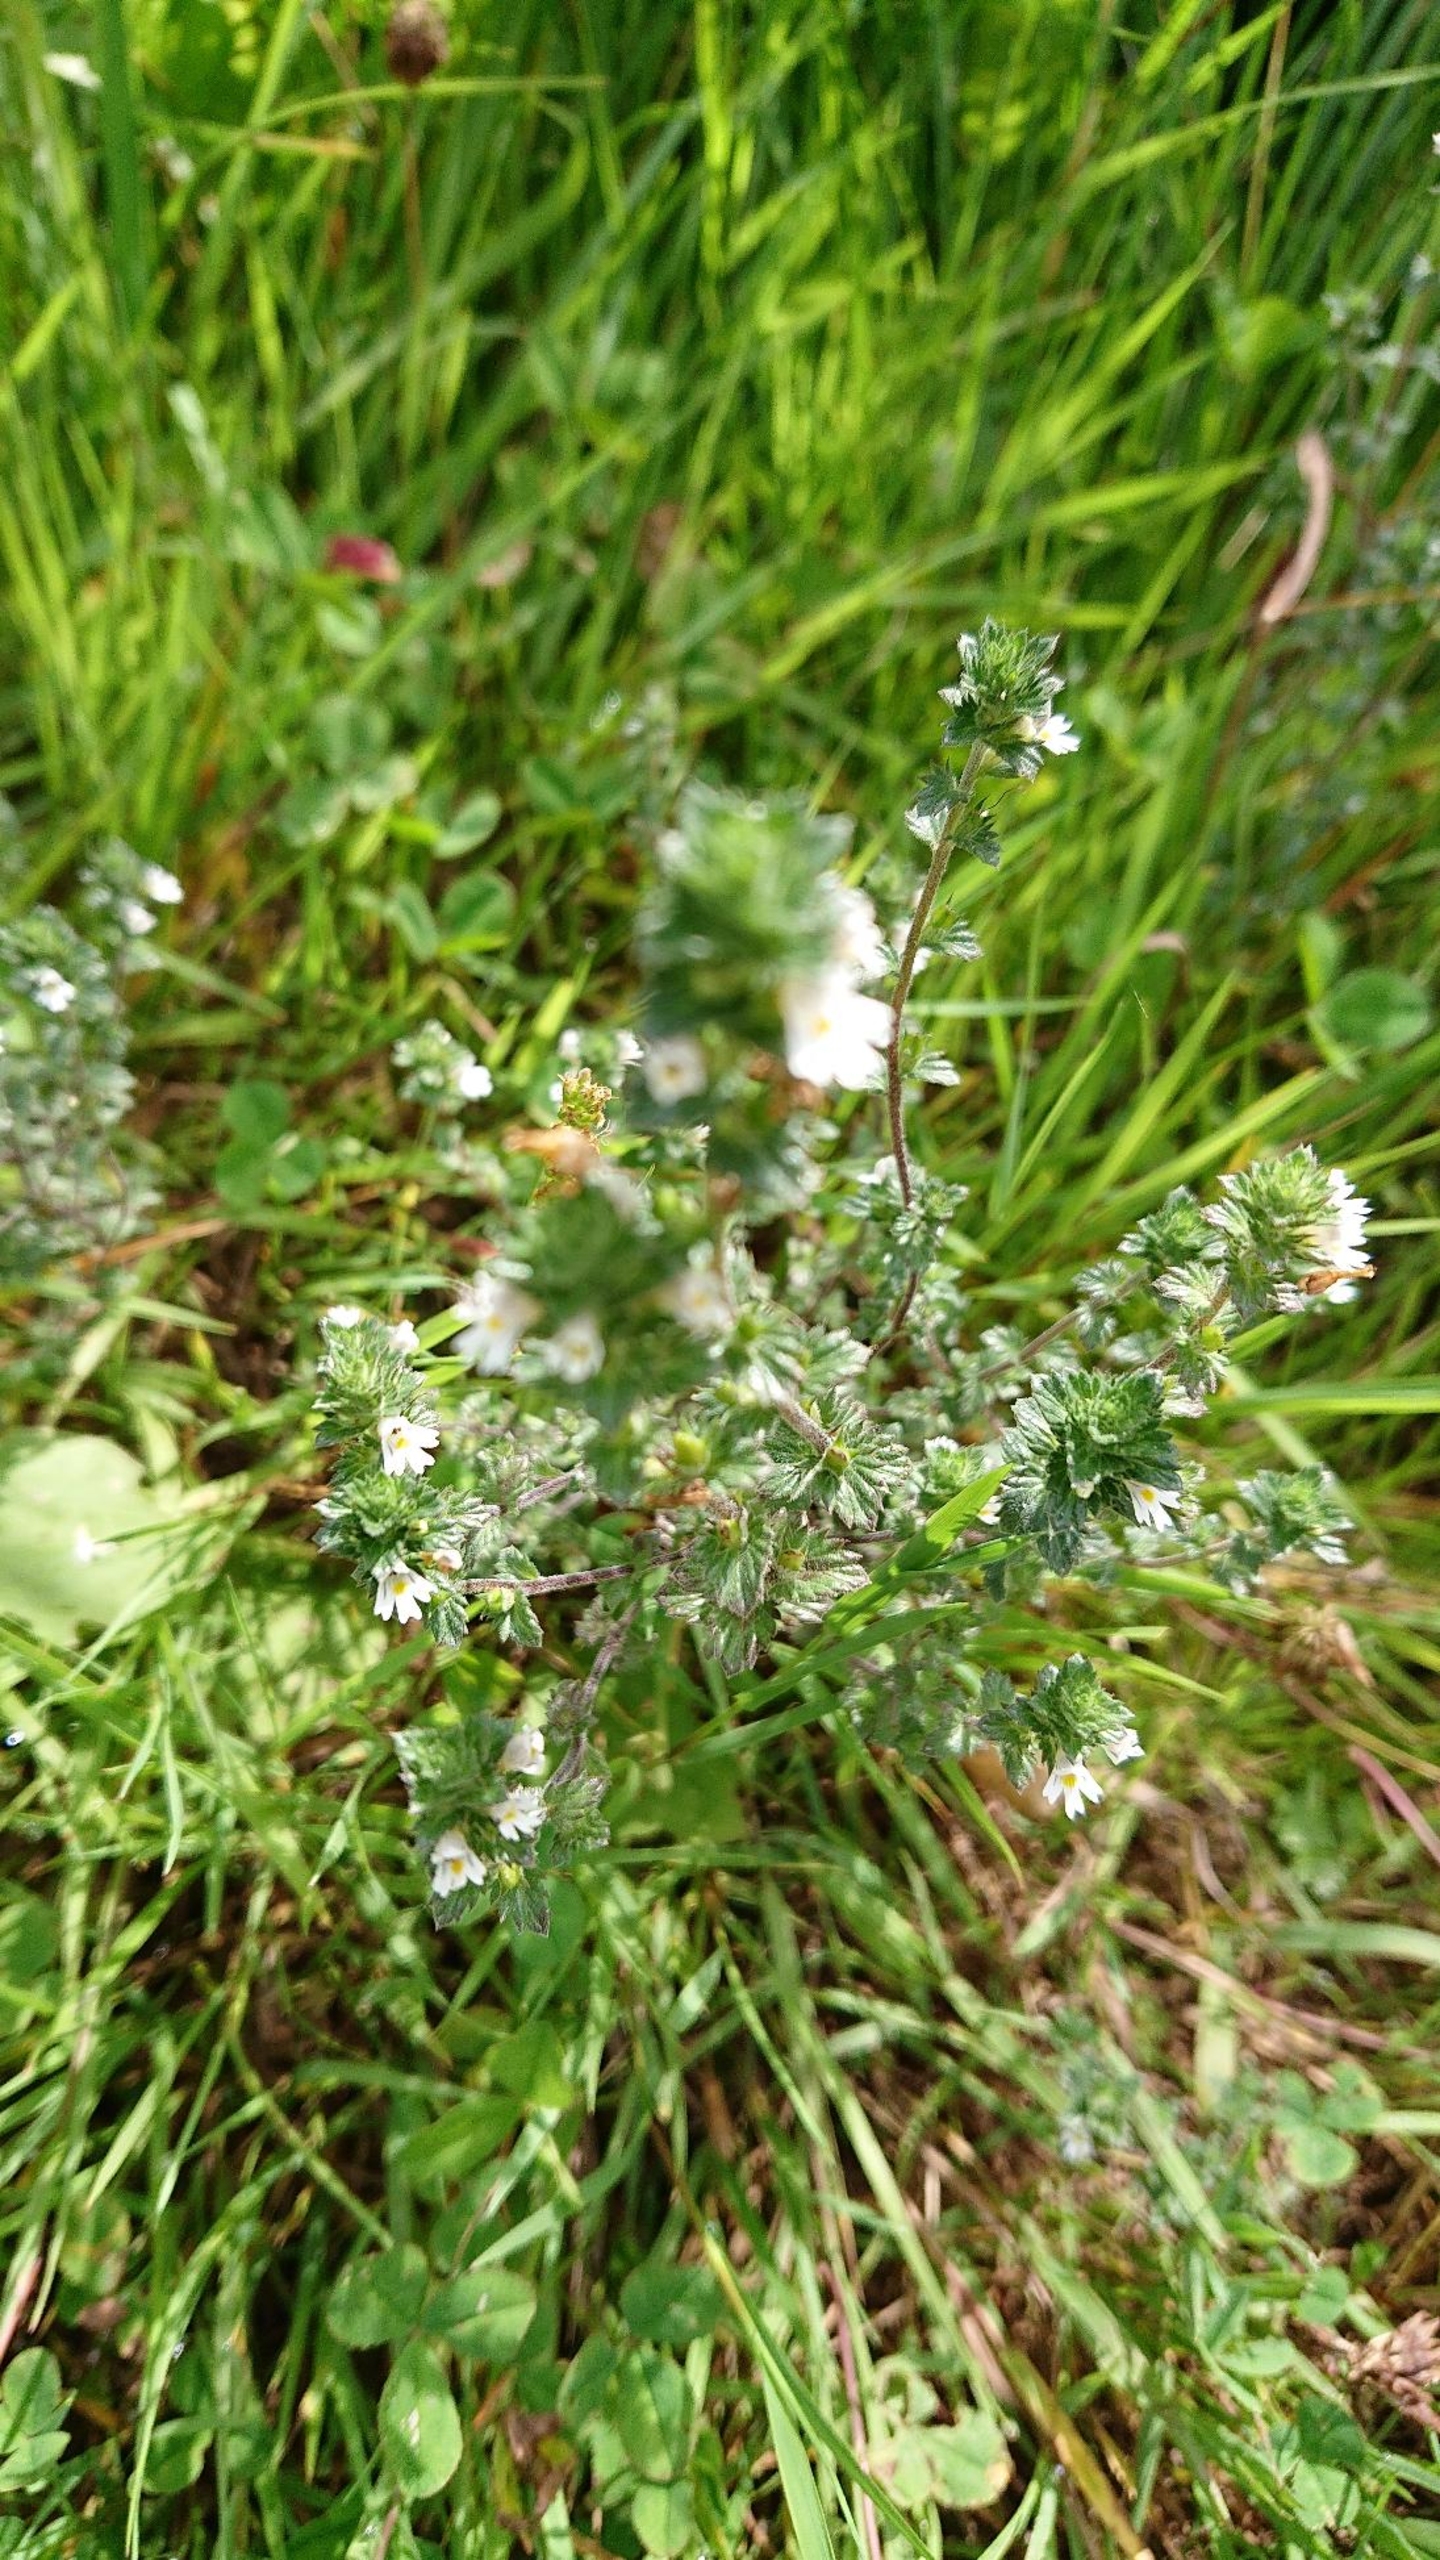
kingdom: Plantae
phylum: Tracheophyta
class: Magnoliopsida
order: Lamiales
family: Orobanchaceae
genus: Euphrasia
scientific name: Euphrasia
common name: Øjentrøstslægten
